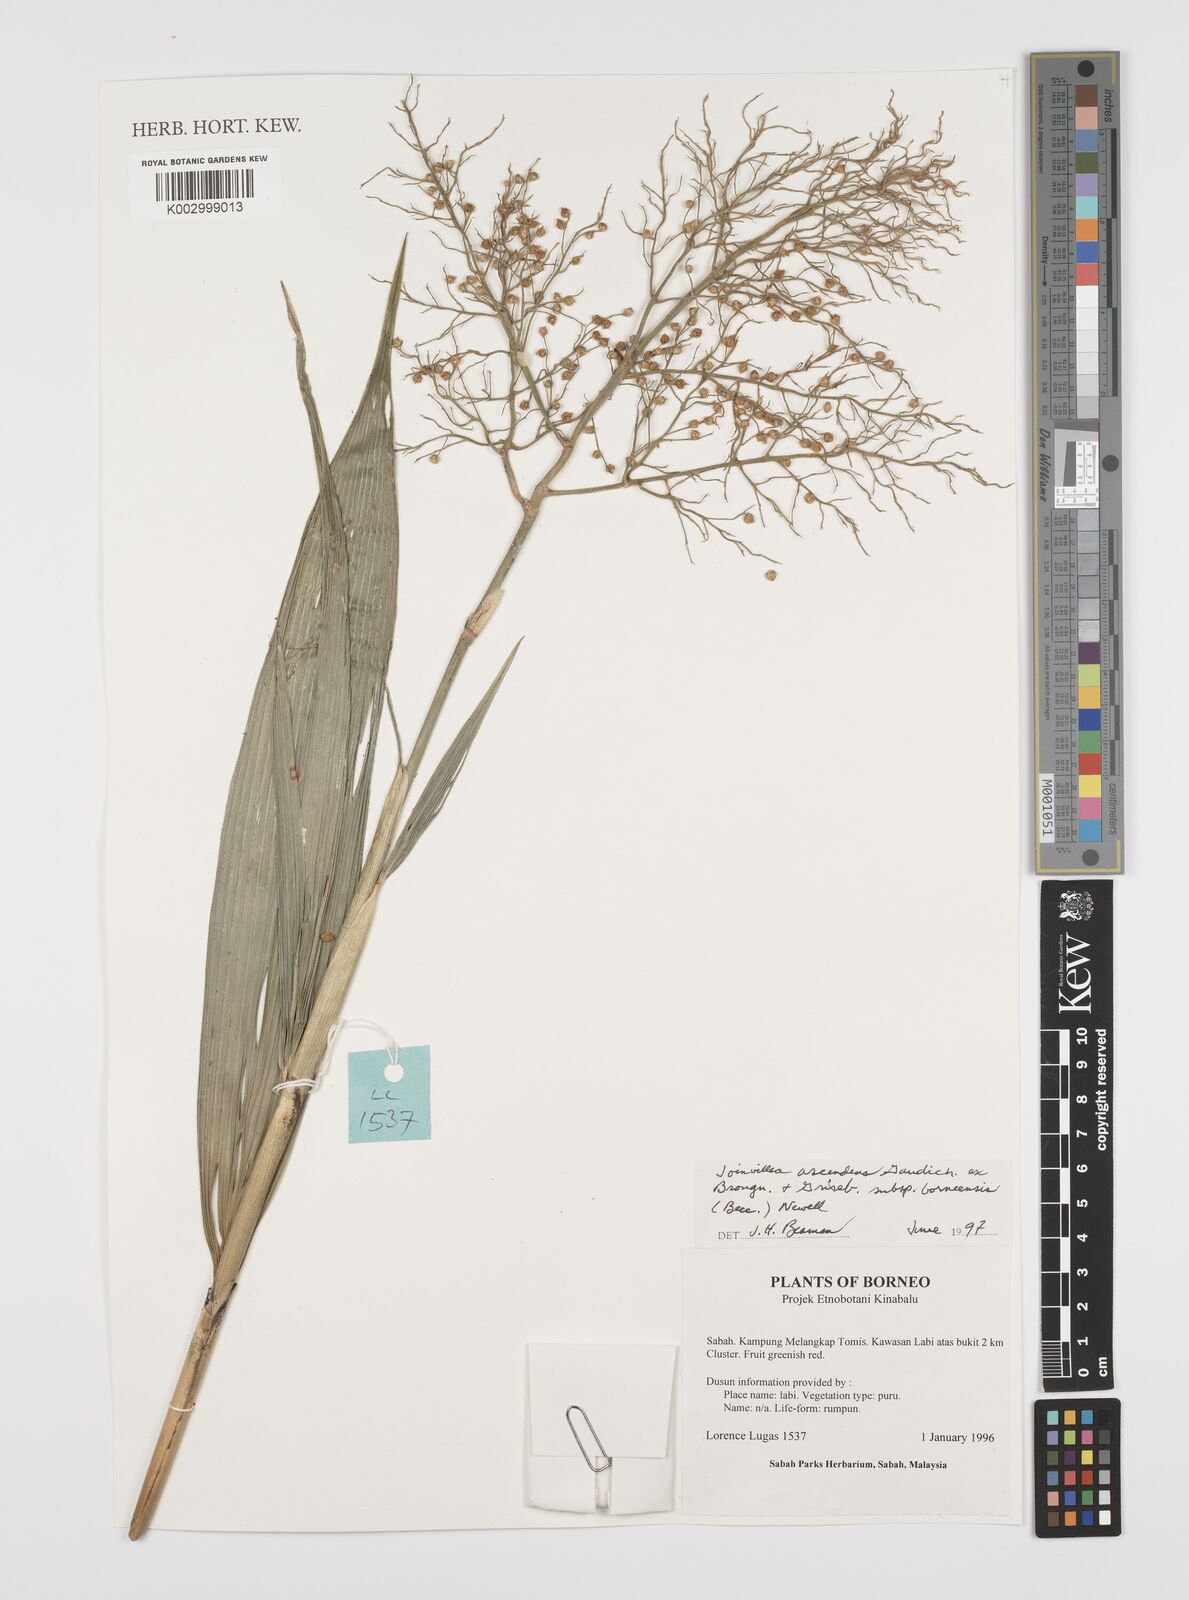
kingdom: Plantae
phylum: Tracheophyta
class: Liliopsida
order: Poales
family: Joinvilleaceae
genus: Joinvillea
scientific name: Joinvillea borneensis
